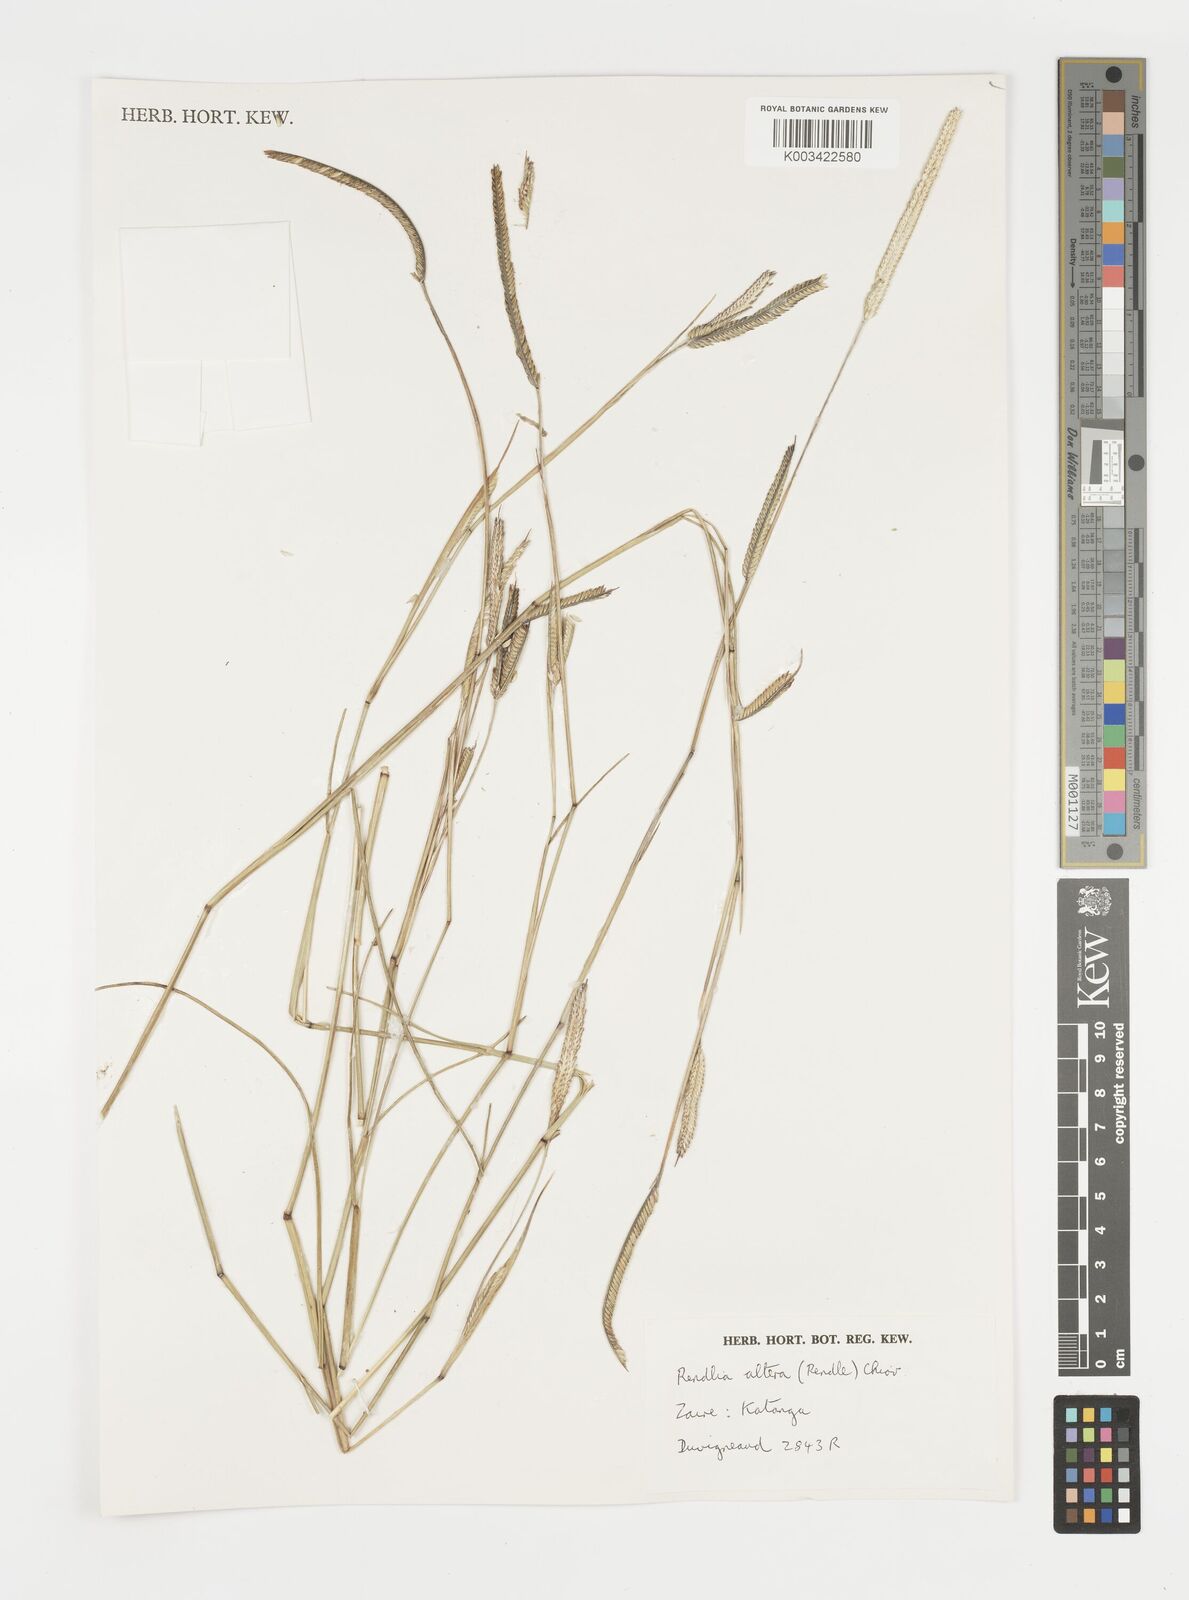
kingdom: Plantae
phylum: Tracheophyta
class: Liliopsida
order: Poales
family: Poaceae
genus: Microchloa
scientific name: Microchloa altera
